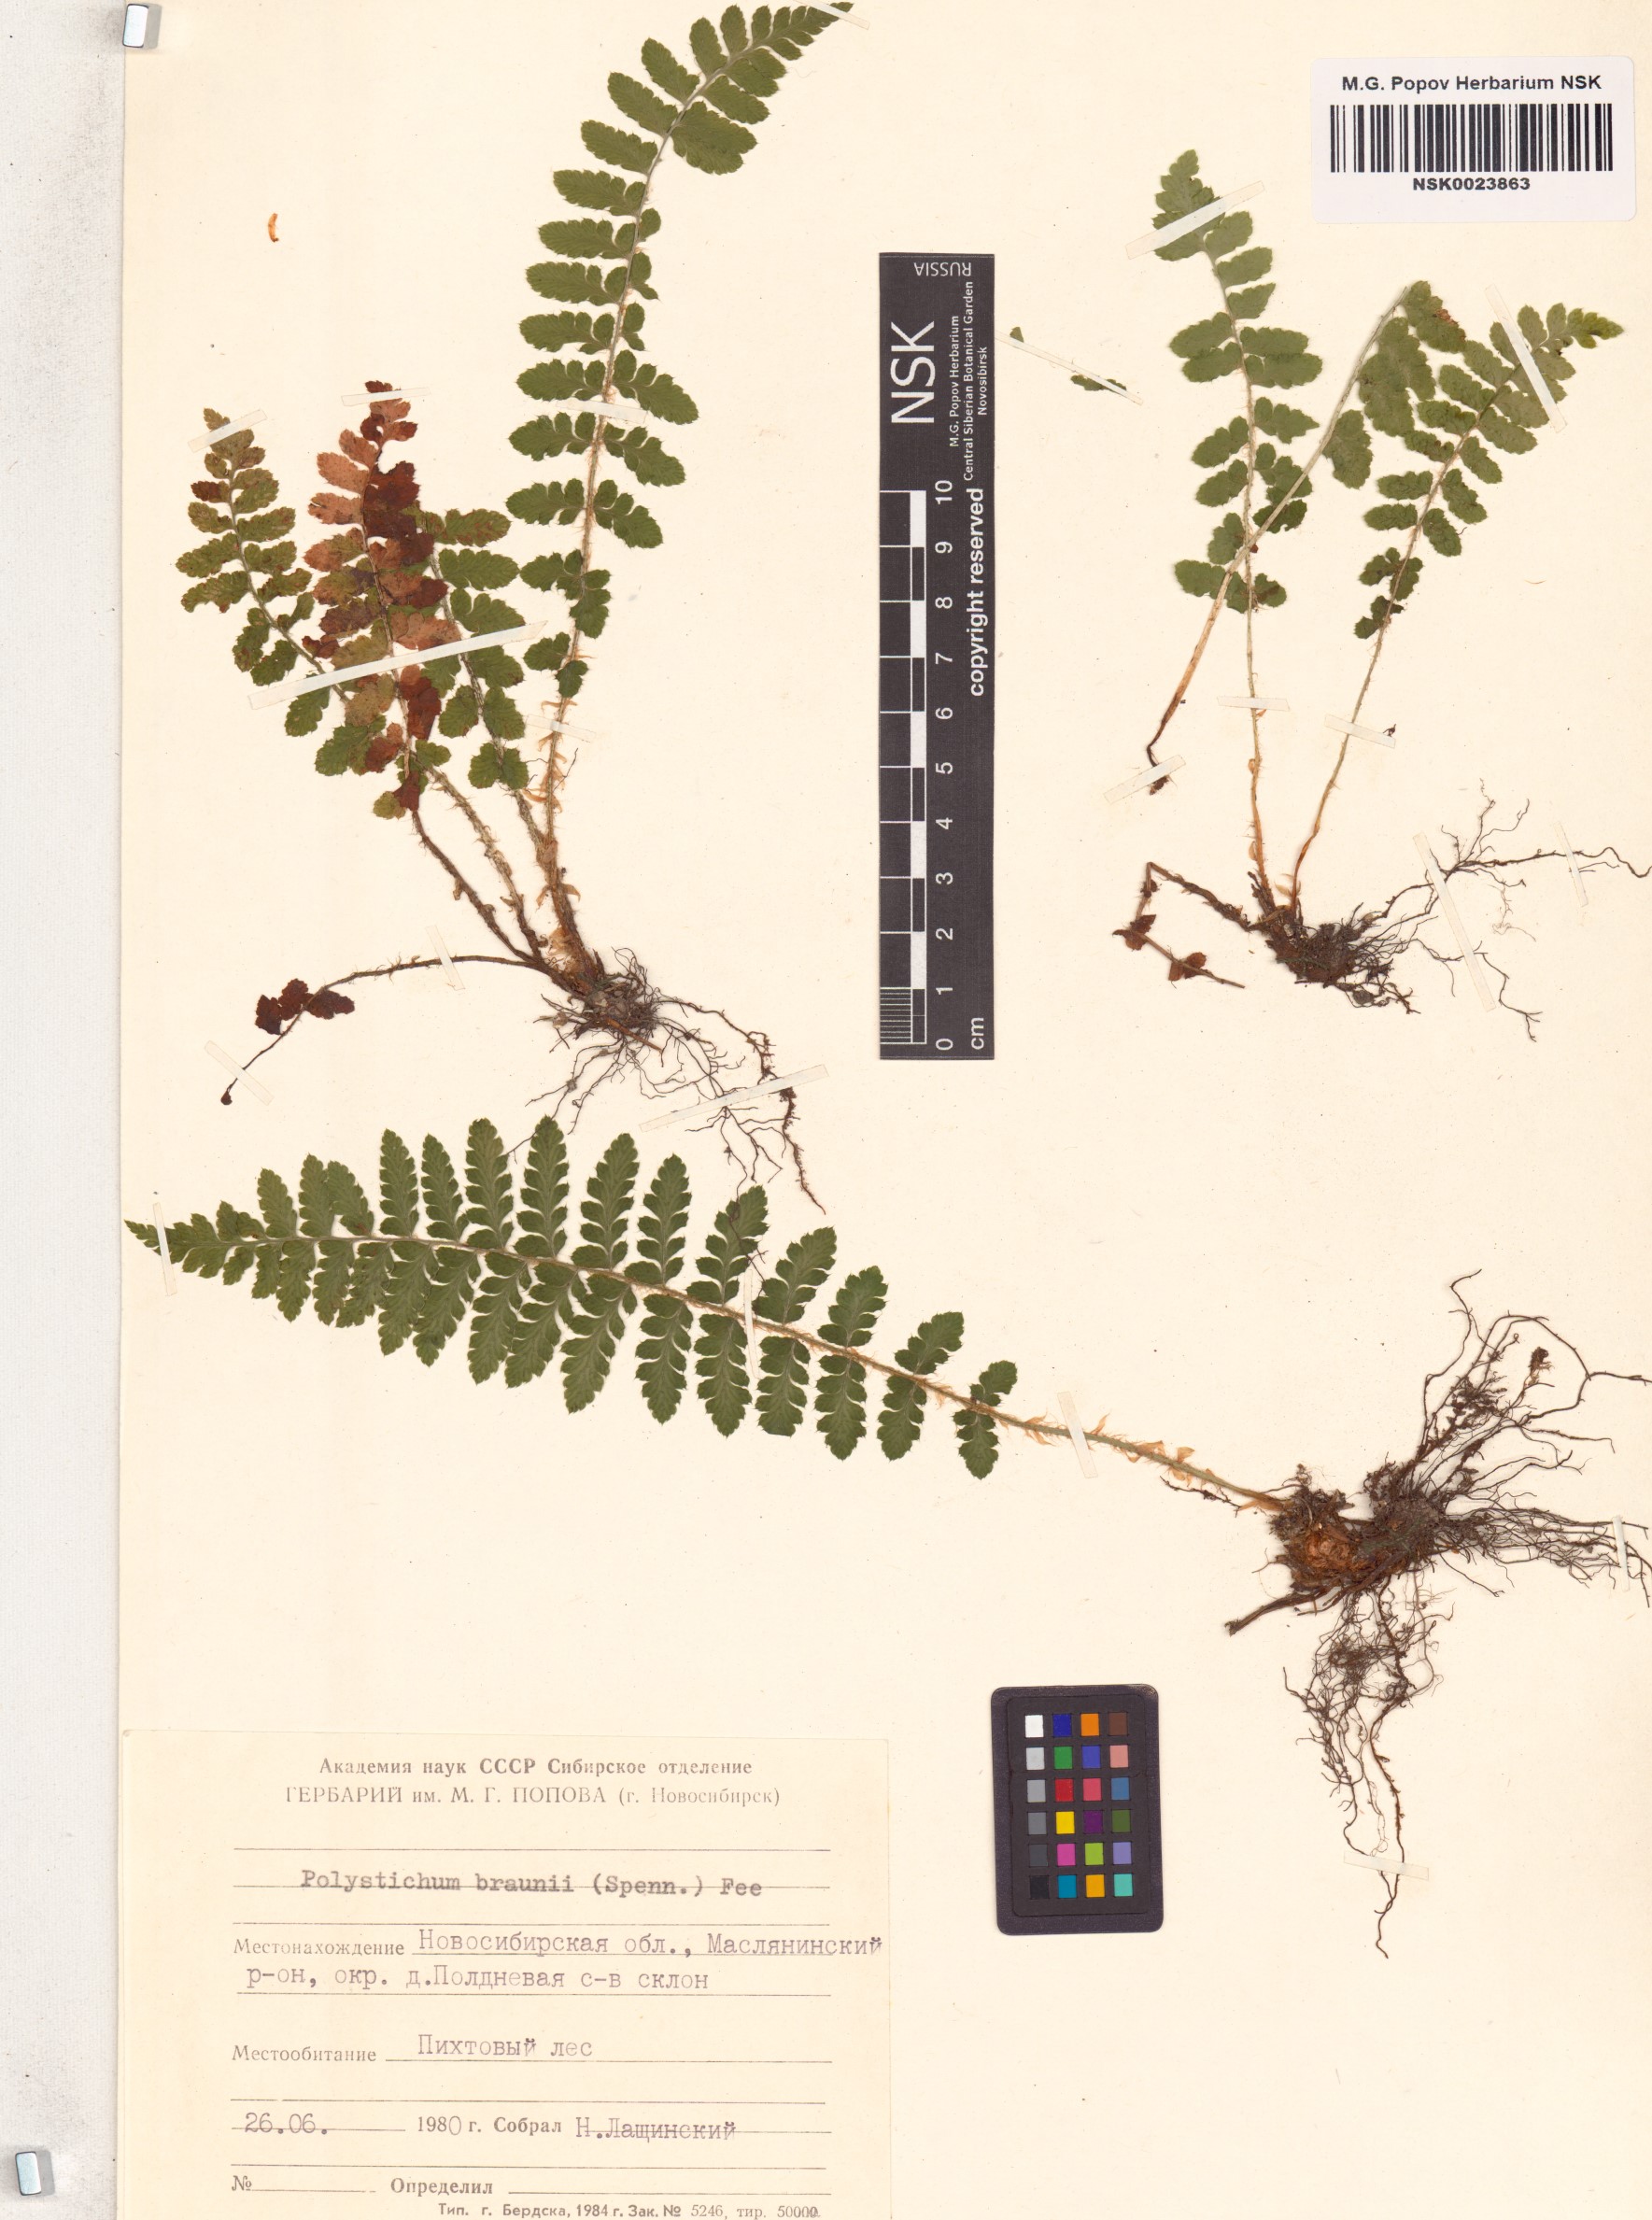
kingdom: Plantae
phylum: Tracheophyta
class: Polypodiopsida
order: Polypodiales
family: Dryopteridaceae
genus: Polystichum
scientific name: Polystichum braunii
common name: Braun's holly fern
